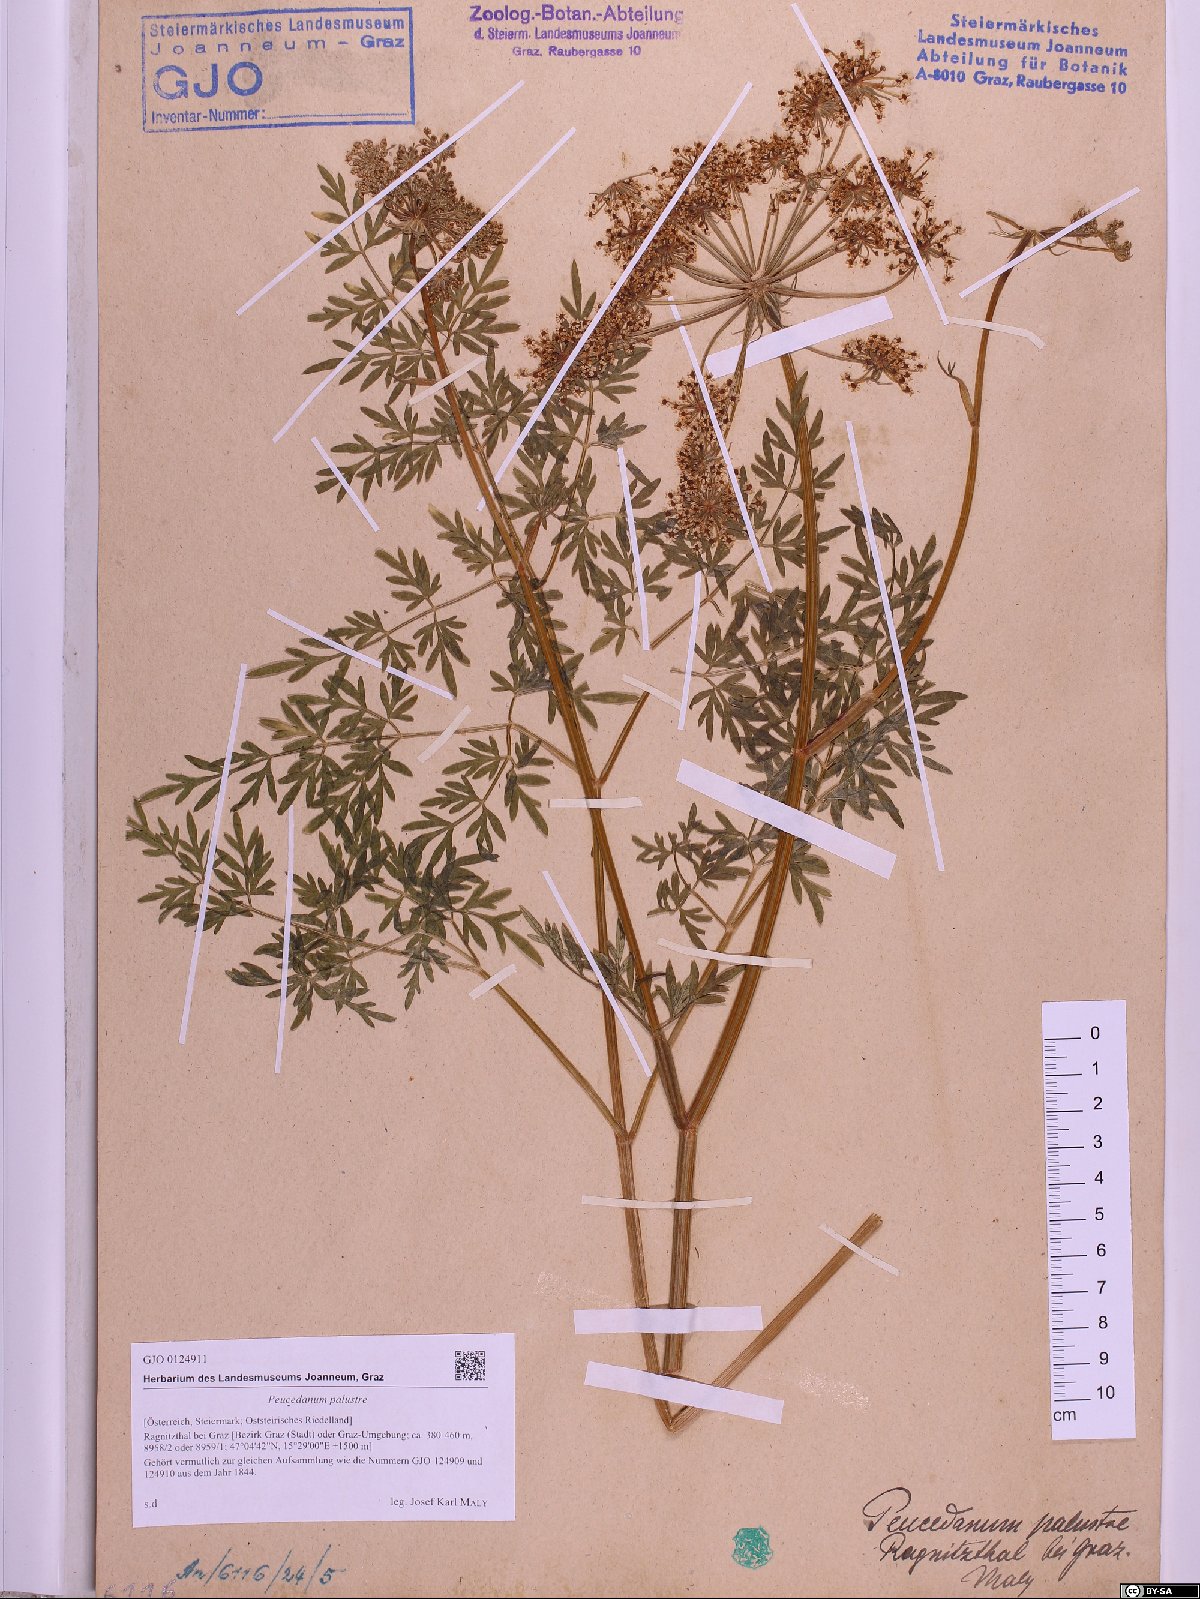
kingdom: Plantae
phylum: Tracheophyta
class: Magnoliopsida
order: Apiales
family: Apiaceae
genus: Thysselinum
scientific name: Thysselinum palustre
